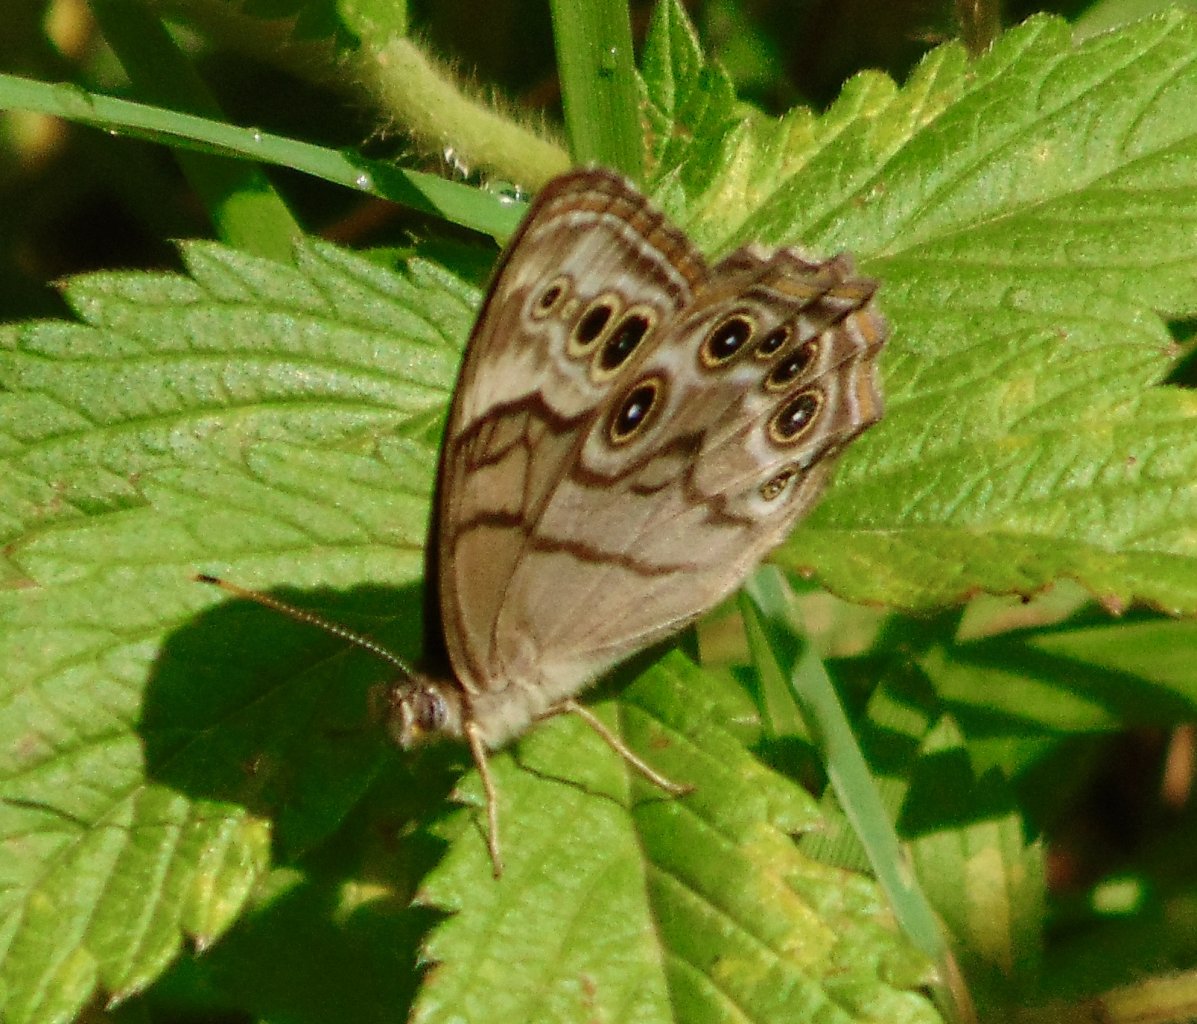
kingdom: Animalia
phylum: Arthropoda
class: Insecta
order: Lepidoptera
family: Nymphalidae
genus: Lethe
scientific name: Lethe anthedon
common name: Northern Pearly-Eye
